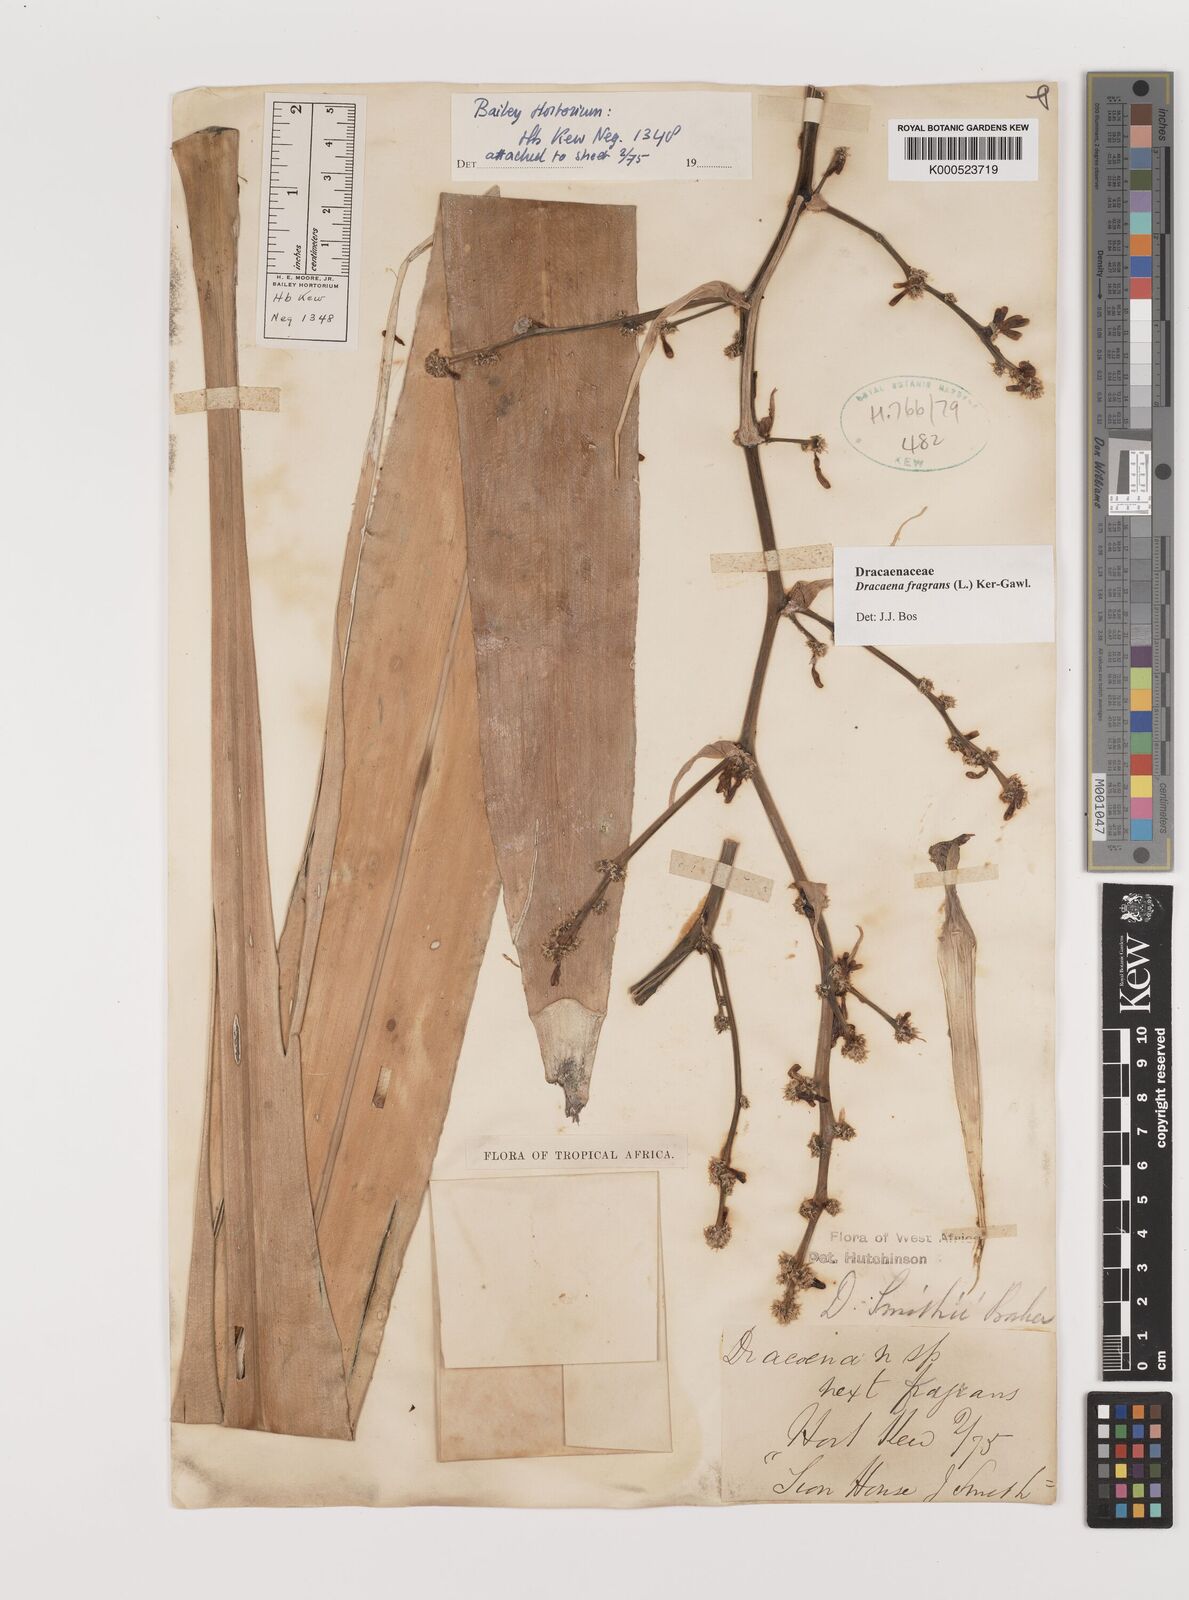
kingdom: Plantae
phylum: Tracheophyta
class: Liliopsida
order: Asparagales
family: Asparagaceae
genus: Dracaena
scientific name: Dracaena fragrans
